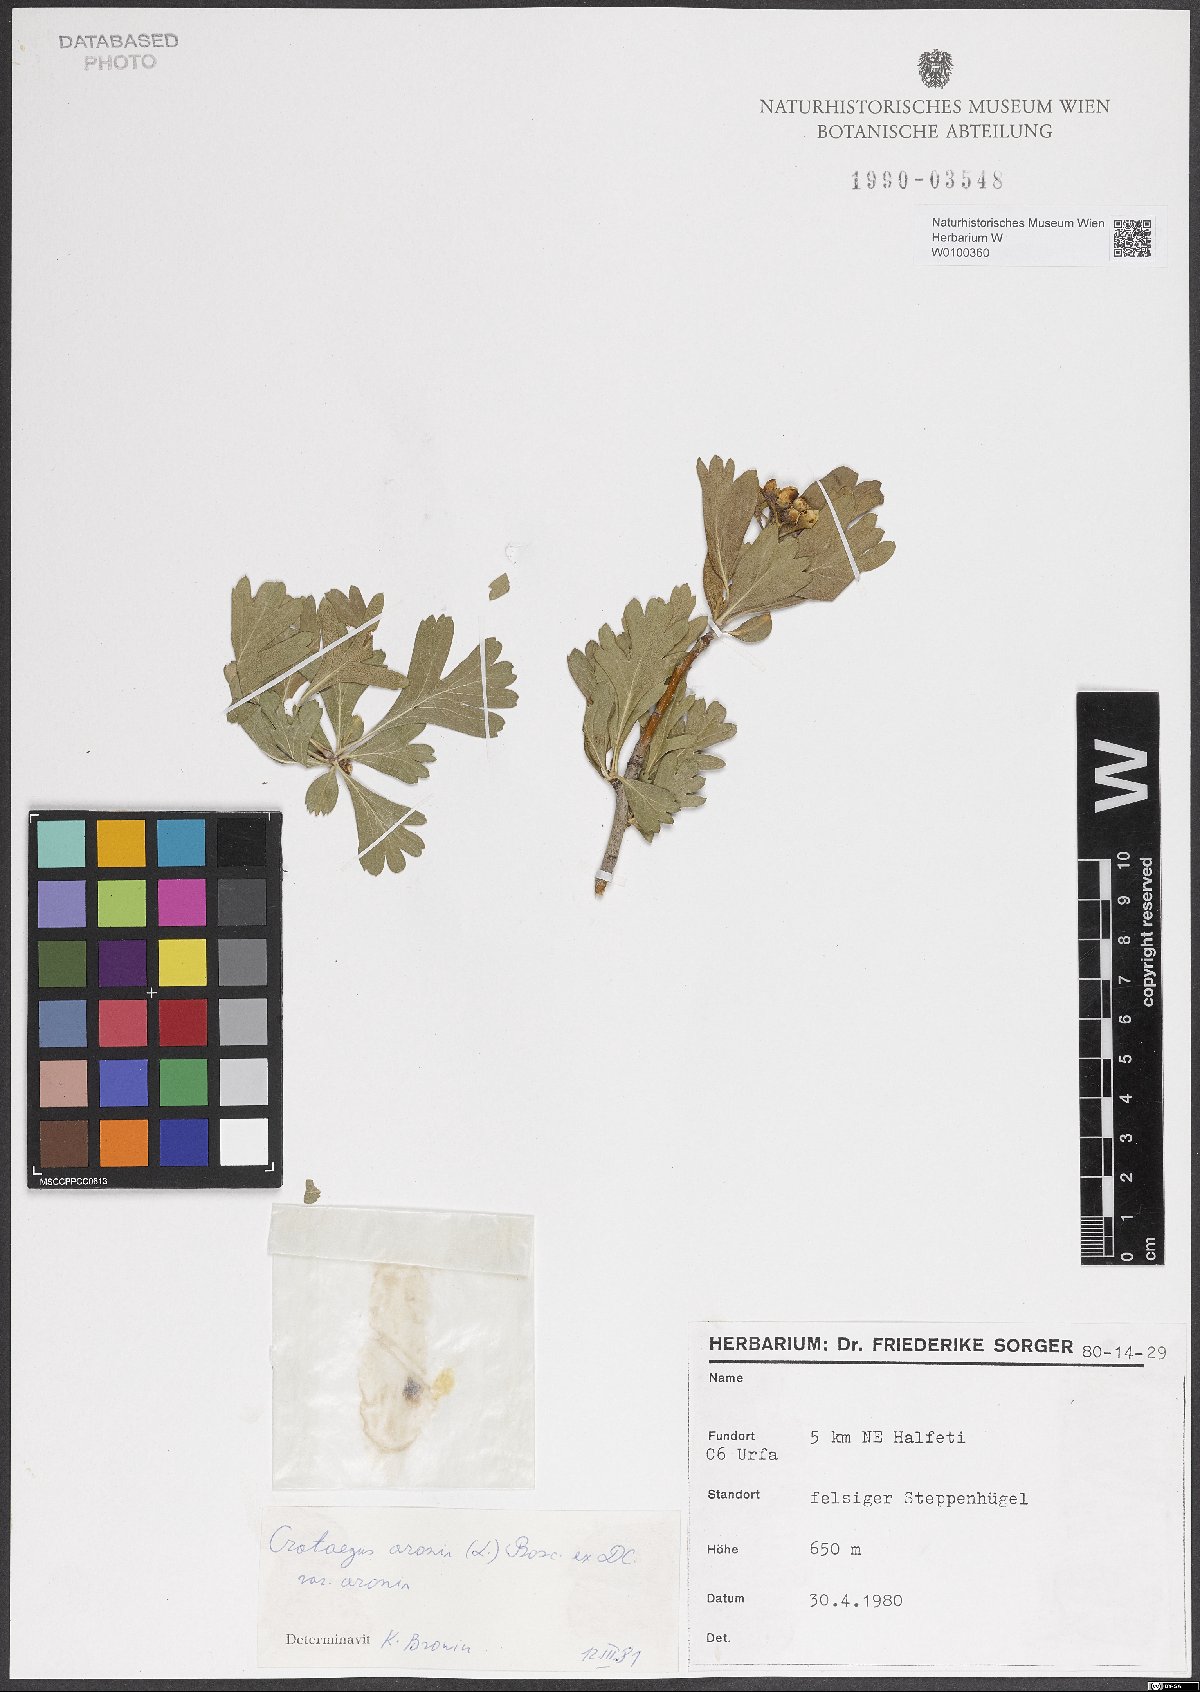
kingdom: Plantae
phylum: Tracheophyta
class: Magnoliopsida
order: Rosales
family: Rosaceae
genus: Crataegus
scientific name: Crataegus azarolus
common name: Azarole
